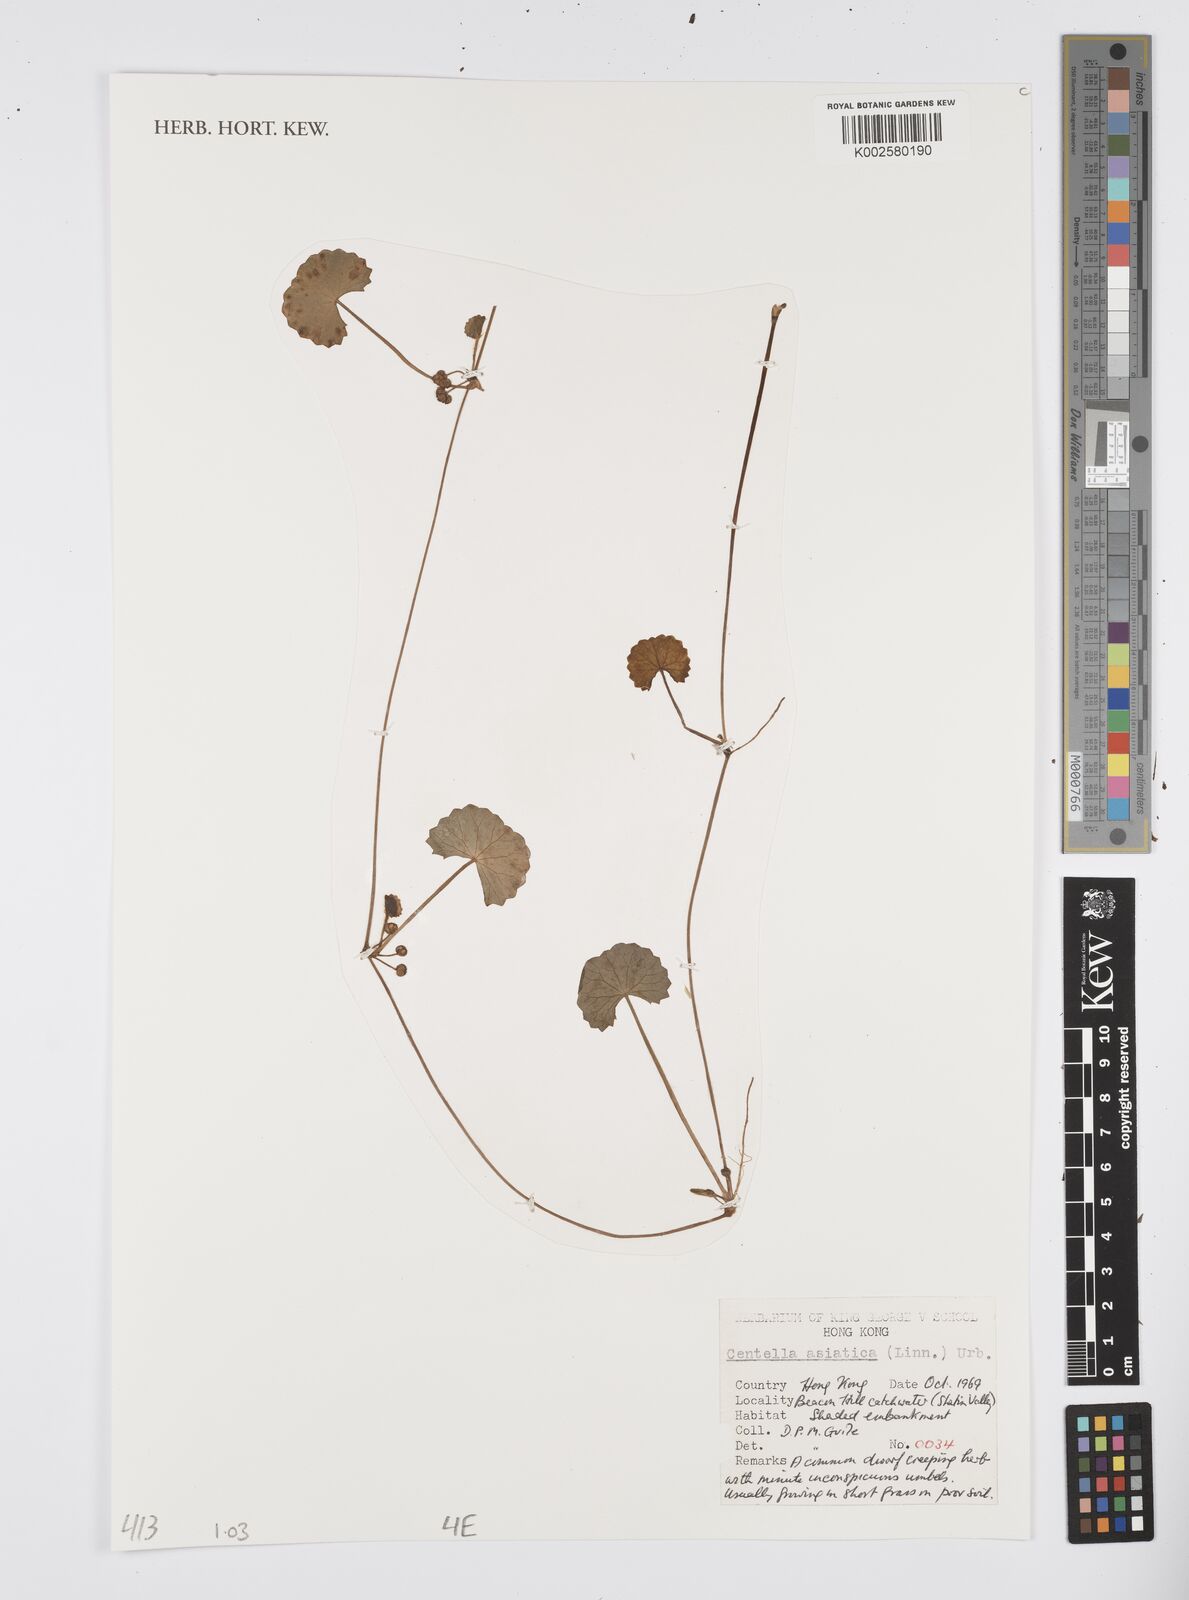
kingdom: Plantae
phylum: Tracheophyta
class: Magnoliopsida
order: Apiales
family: Apiaceae
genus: Centella
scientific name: Centella
